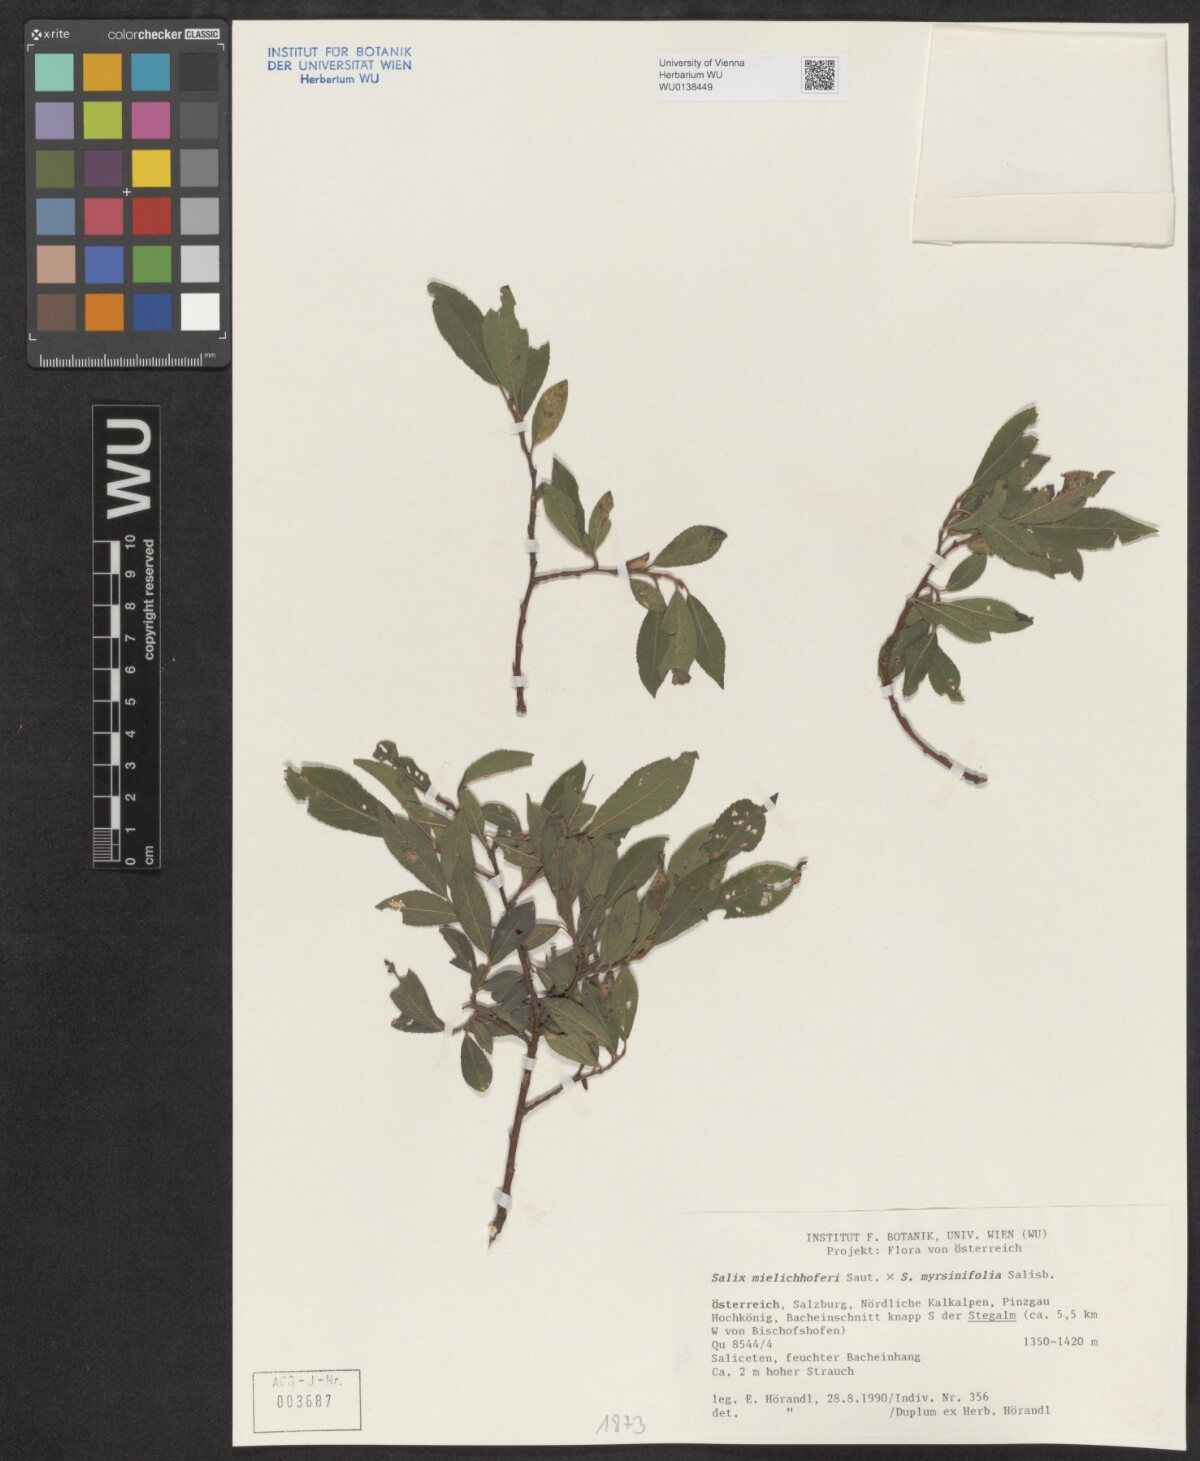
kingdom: Plantae
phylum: Tracheophyta
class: Magnoliopsida
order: Malpighiales
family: Salicaceae
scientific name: Salicaceae
